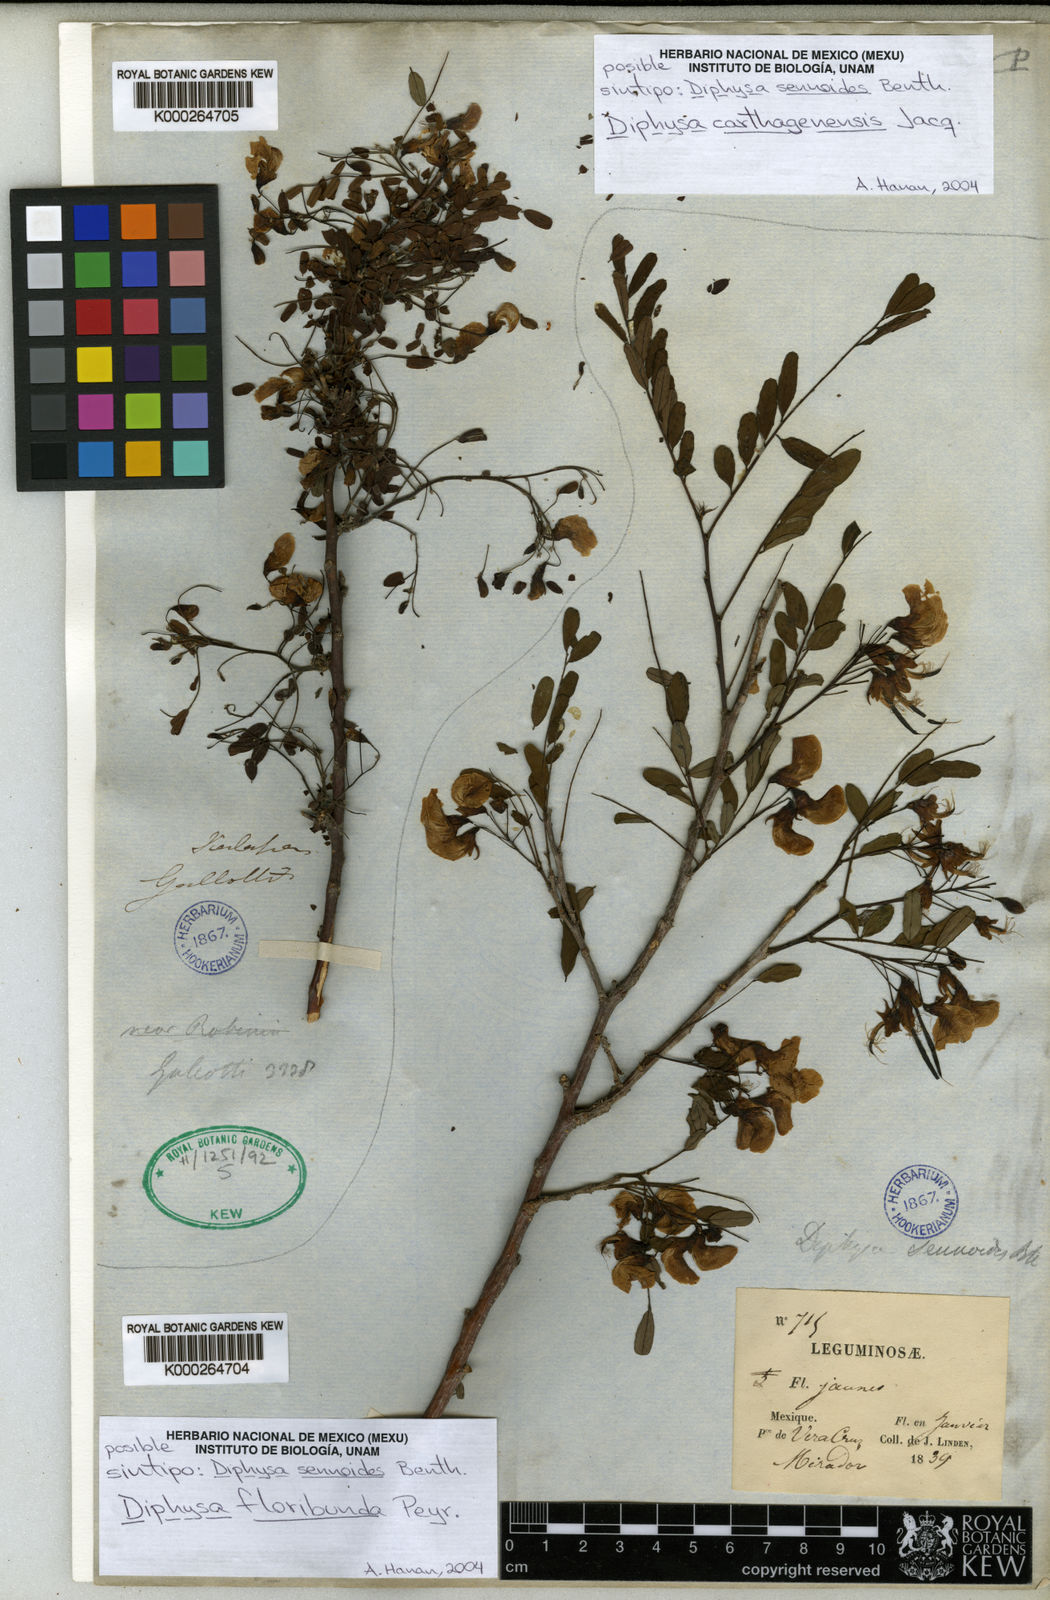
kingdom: Plantae
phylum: Tracheophyta
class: Magnoliopsida
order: Fabales
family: Fabaceae
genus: Diphysa
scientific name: Diphysa sennoides
